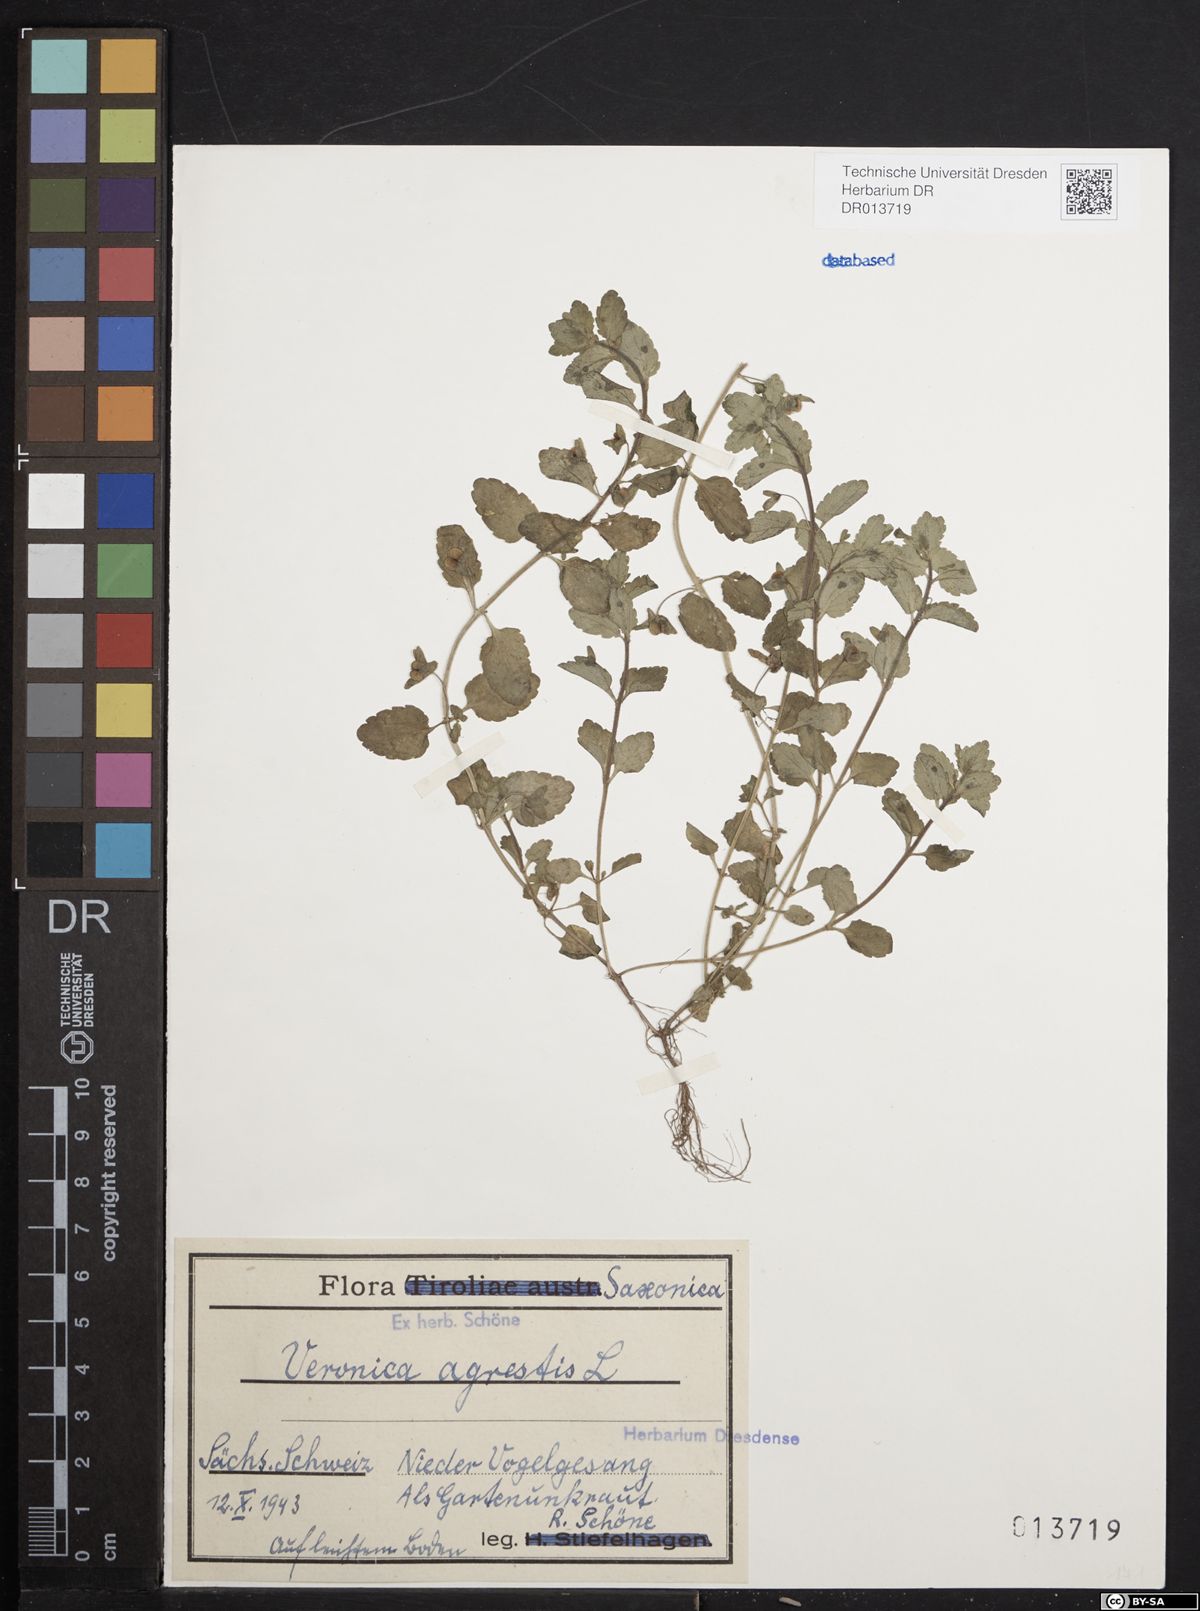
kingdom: Plantae
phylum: Tracheophyta
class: Magnoliopsida
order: Lamiales
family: Plantaginaceae
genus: Veronica
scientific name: Veronica agrestis
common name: Green field-speedwell
